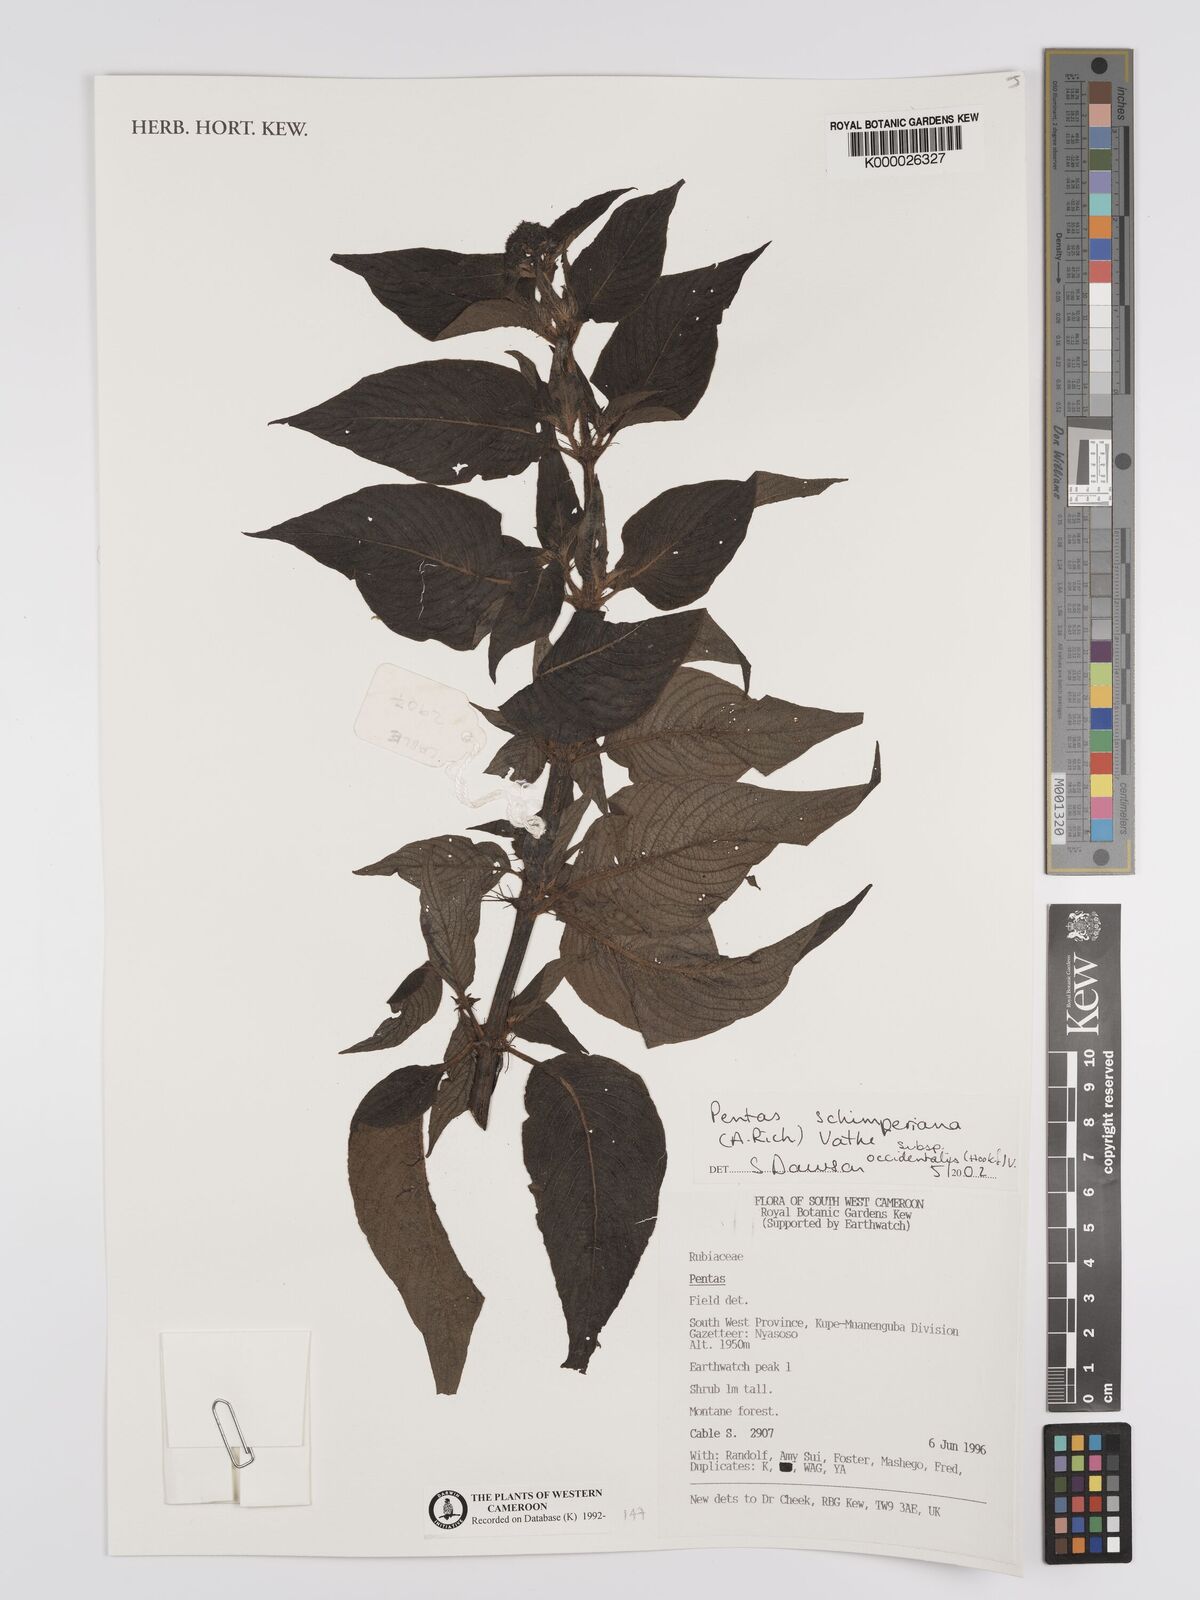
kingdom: Plantae
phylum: Tracheophyta
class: Magnoliopsida
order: Gentianales
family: Rubiaceae
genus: Phyllopentas
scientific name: Phyllopentas schimperi
